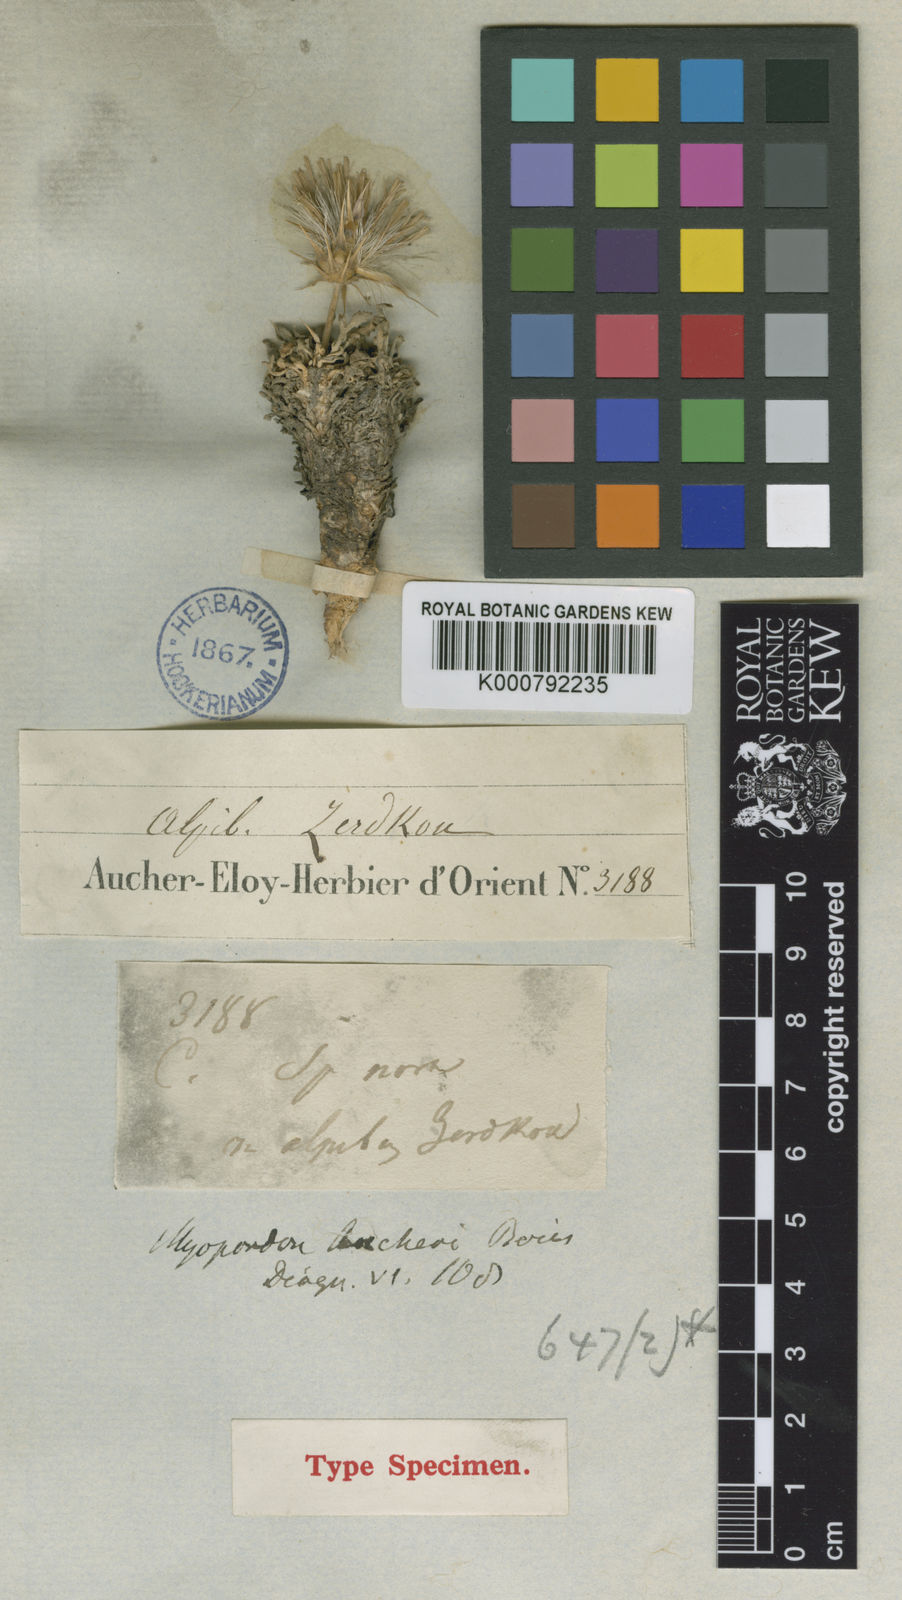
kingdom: Plantae
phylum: Tracheophyta
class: Magnoliopsida
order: Asterales
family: Asteraceae
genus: Myopordon
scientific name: Myopordon aucheri
